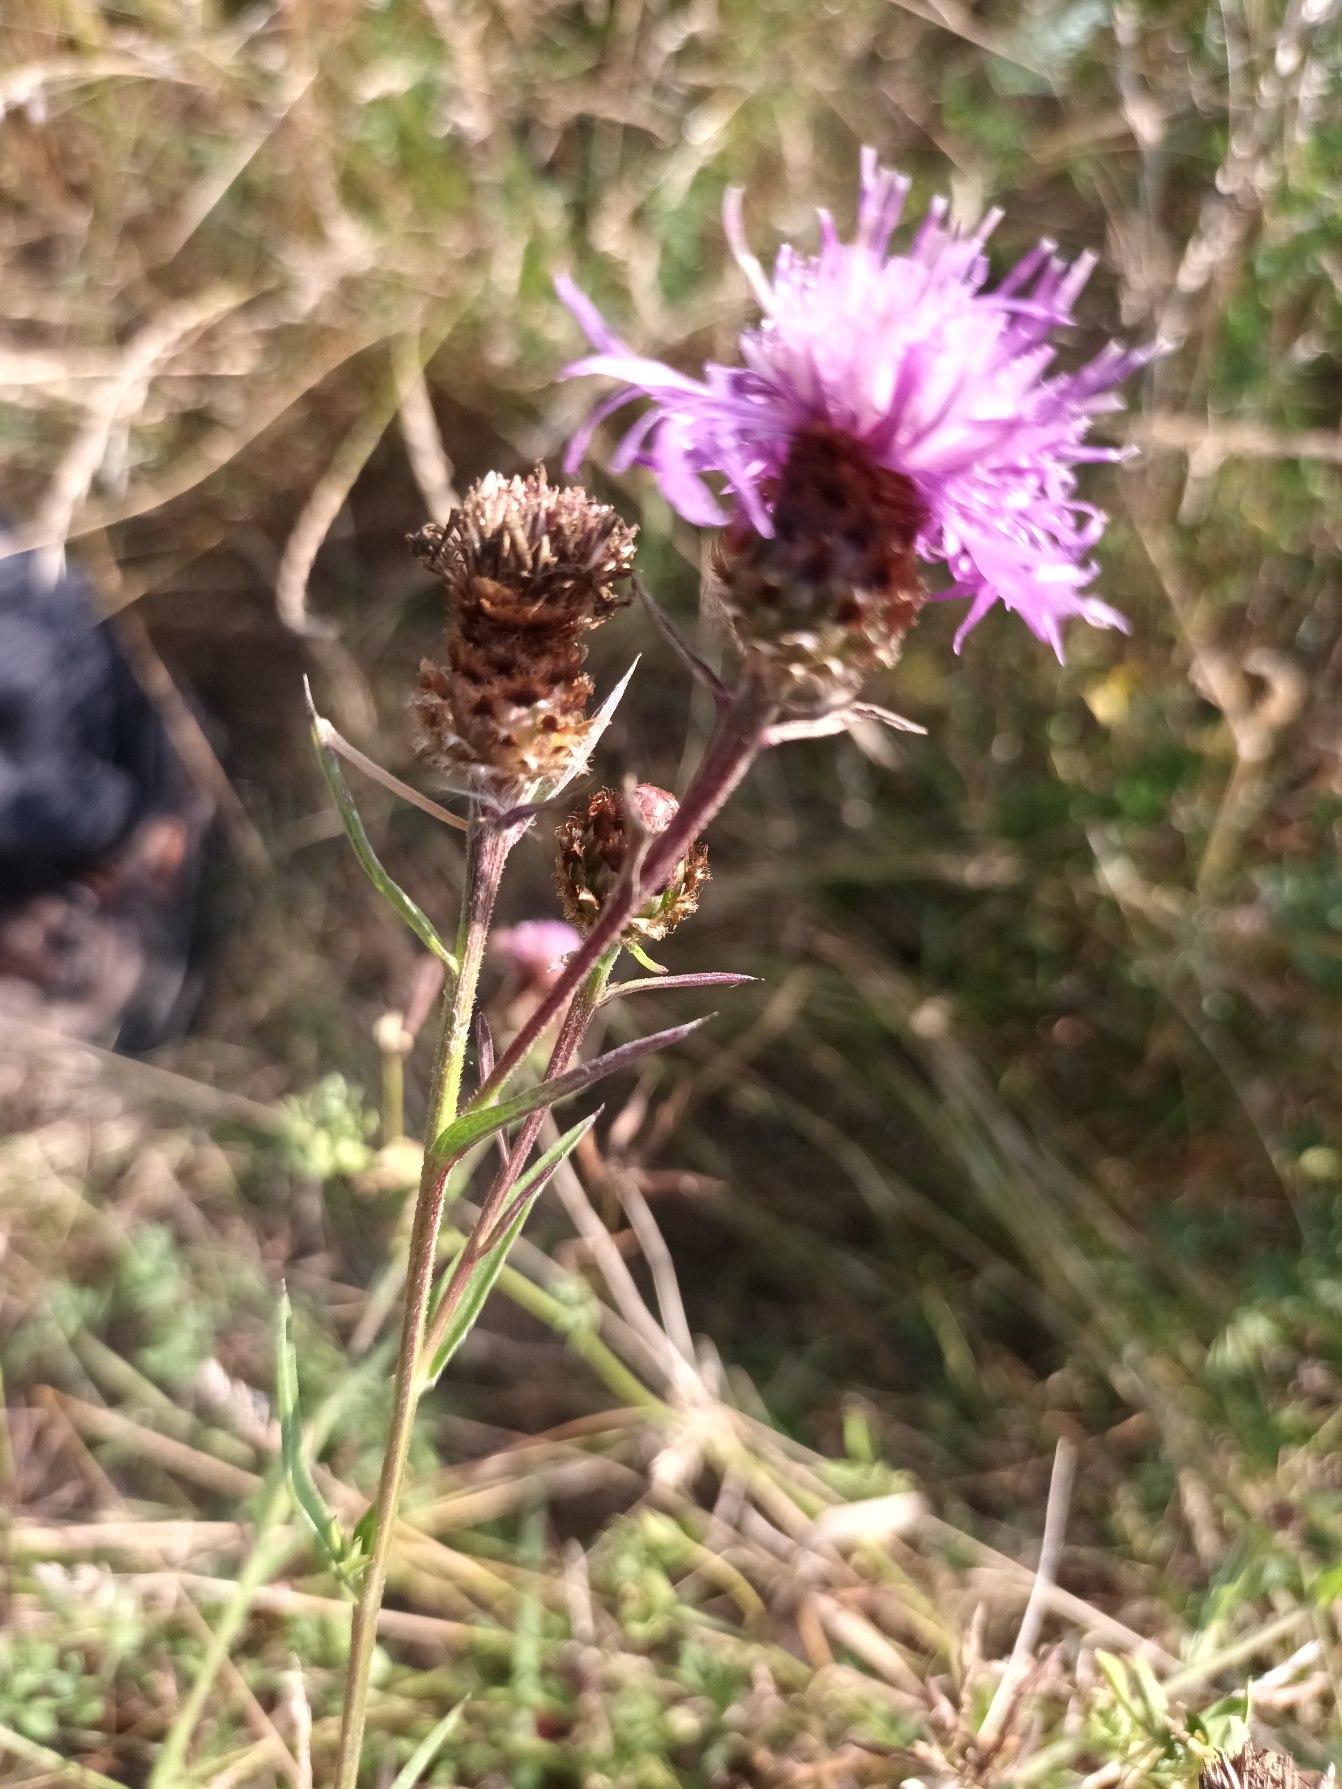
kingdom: Plantae
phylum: Tracheophyta
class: Magnoliopsida
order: Asterales
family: Asteraceae
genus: Centaurea
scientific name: Centaurea
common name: Knopurtslægten
